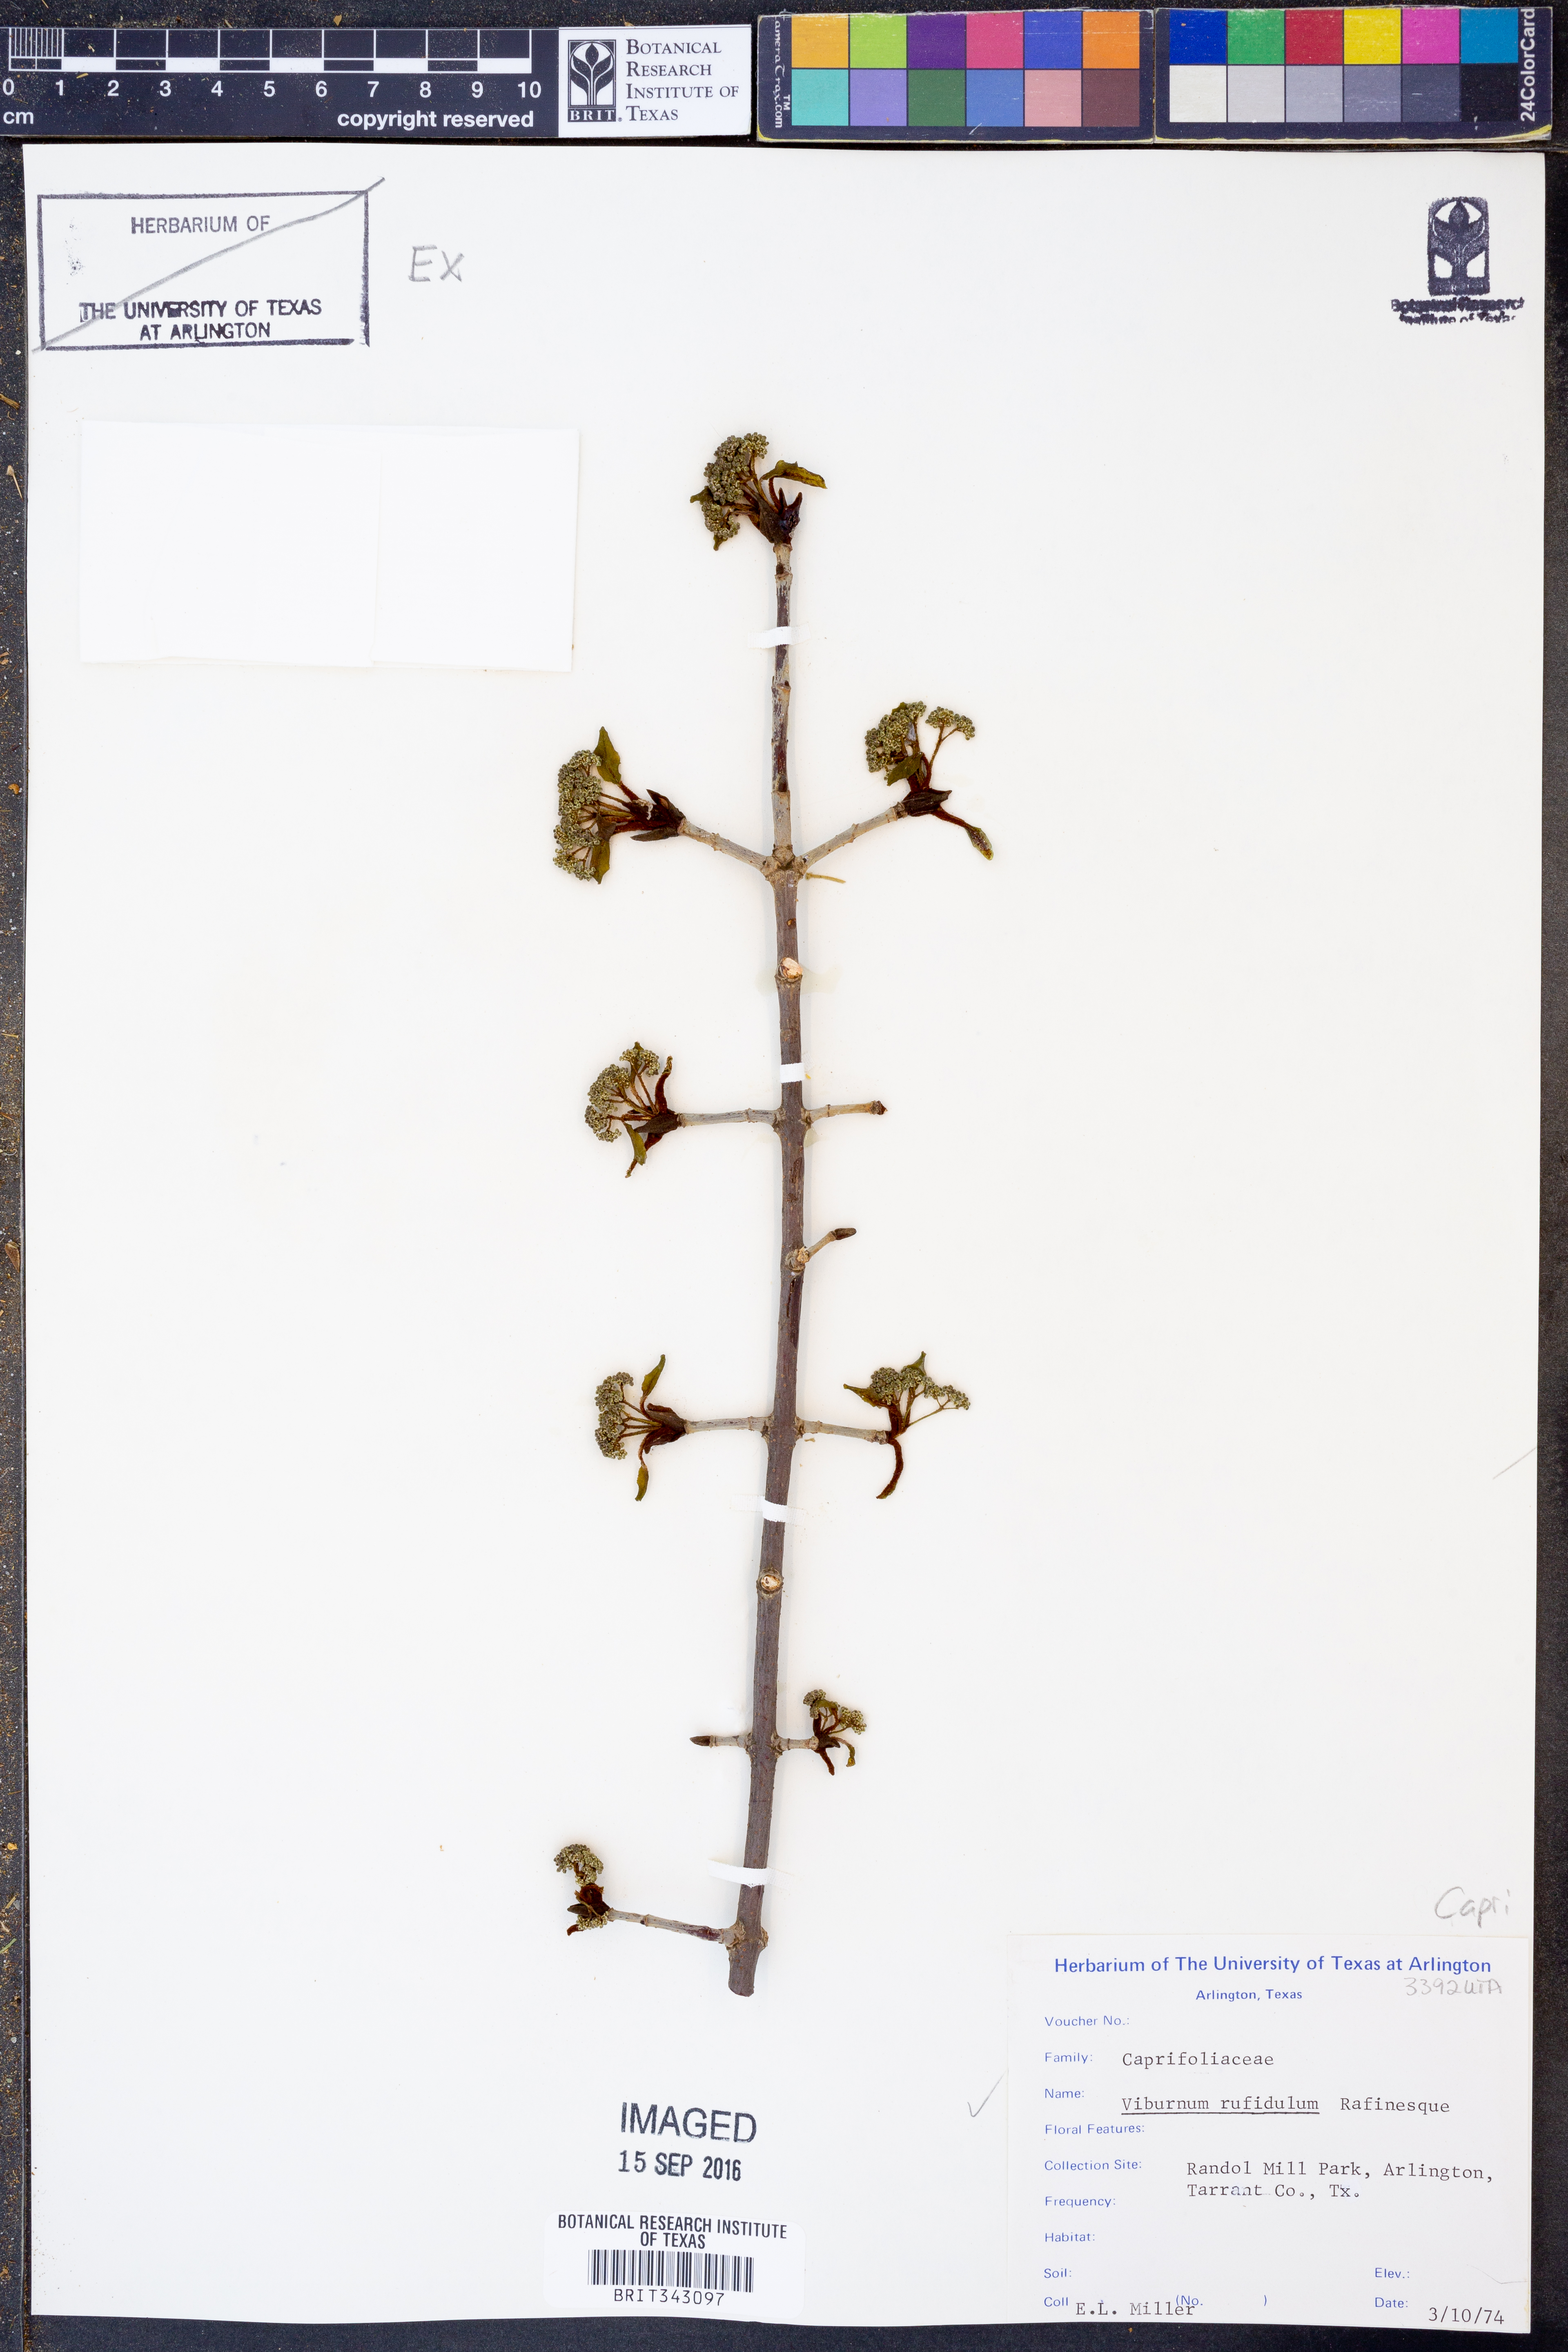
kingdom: Plantae
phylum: Tracheophyta
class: Magnoliopsida
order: Dipsacales
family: Viburnaceae
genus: Viburnum
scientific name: Viburnum rufidulum
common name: Blue haw
